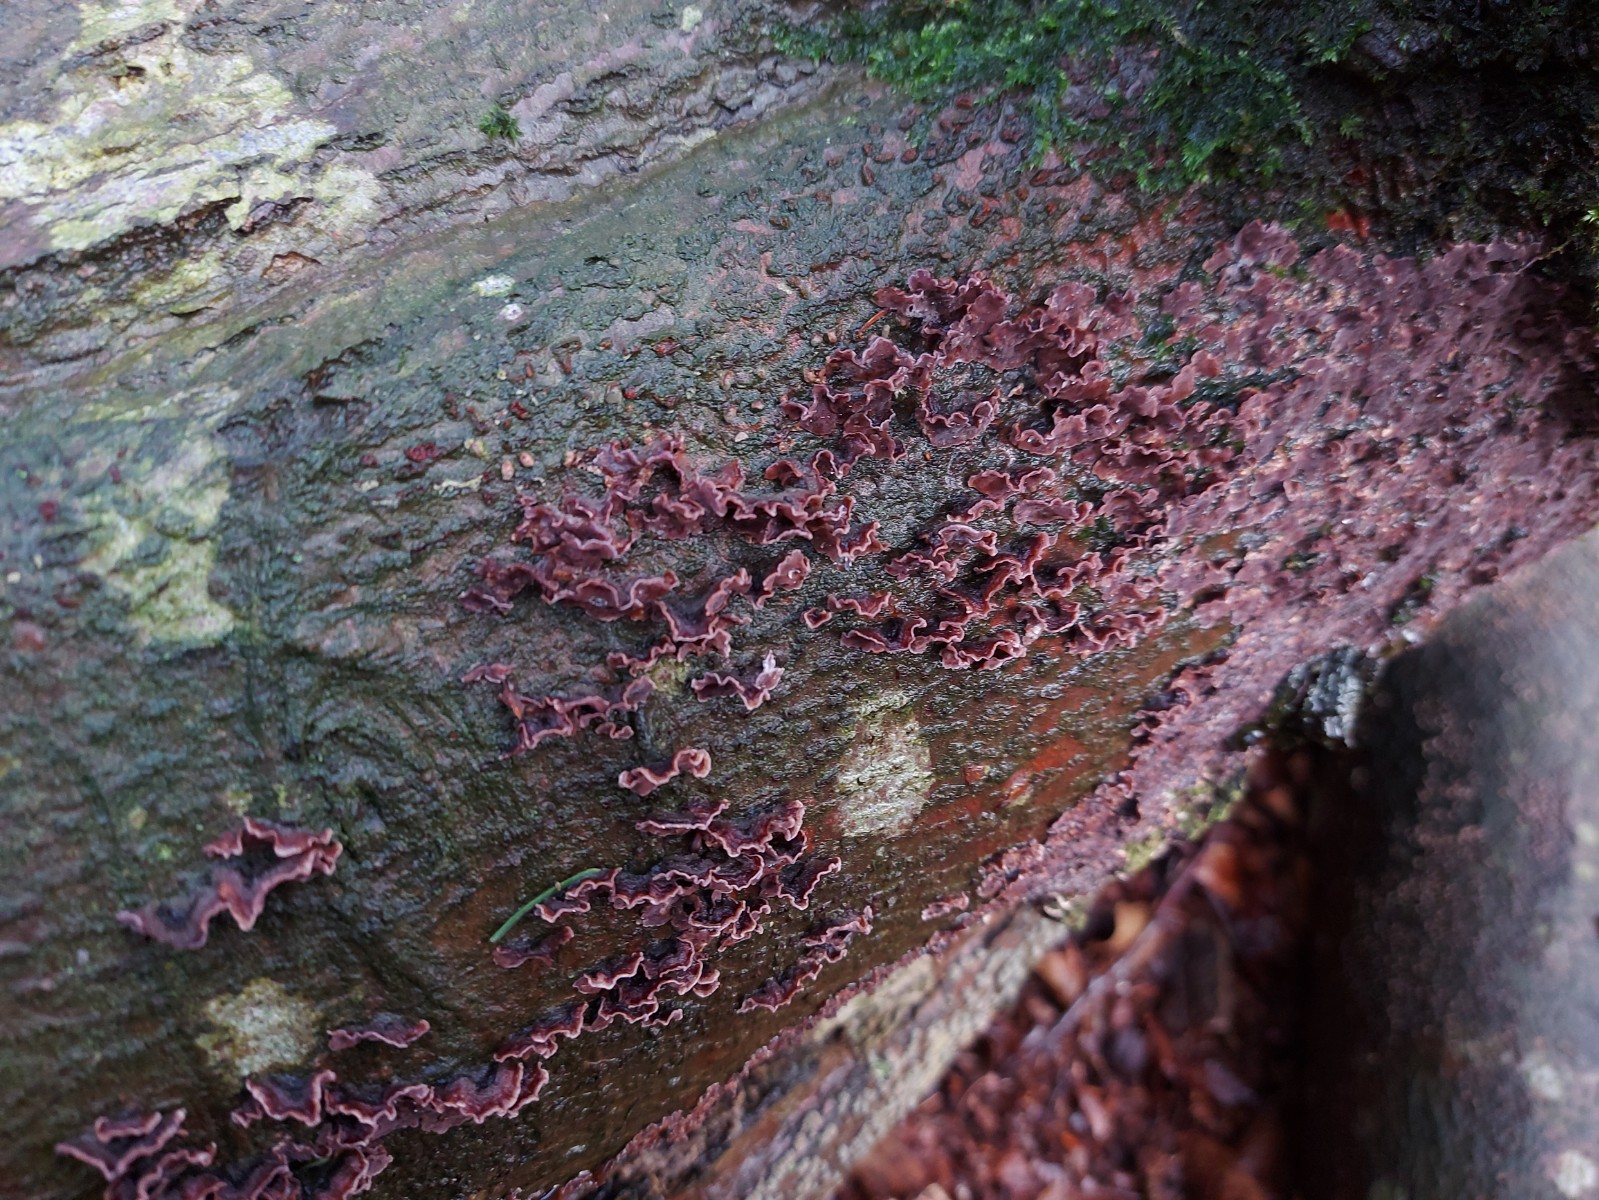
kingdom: Fungi
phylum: Basidiomycota
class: Agaricomycetes
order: Agaricales
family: Cyphellaceae
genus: Chondrostereum
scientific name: Chondrostereum purpureum
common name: purpurlædersvamp
